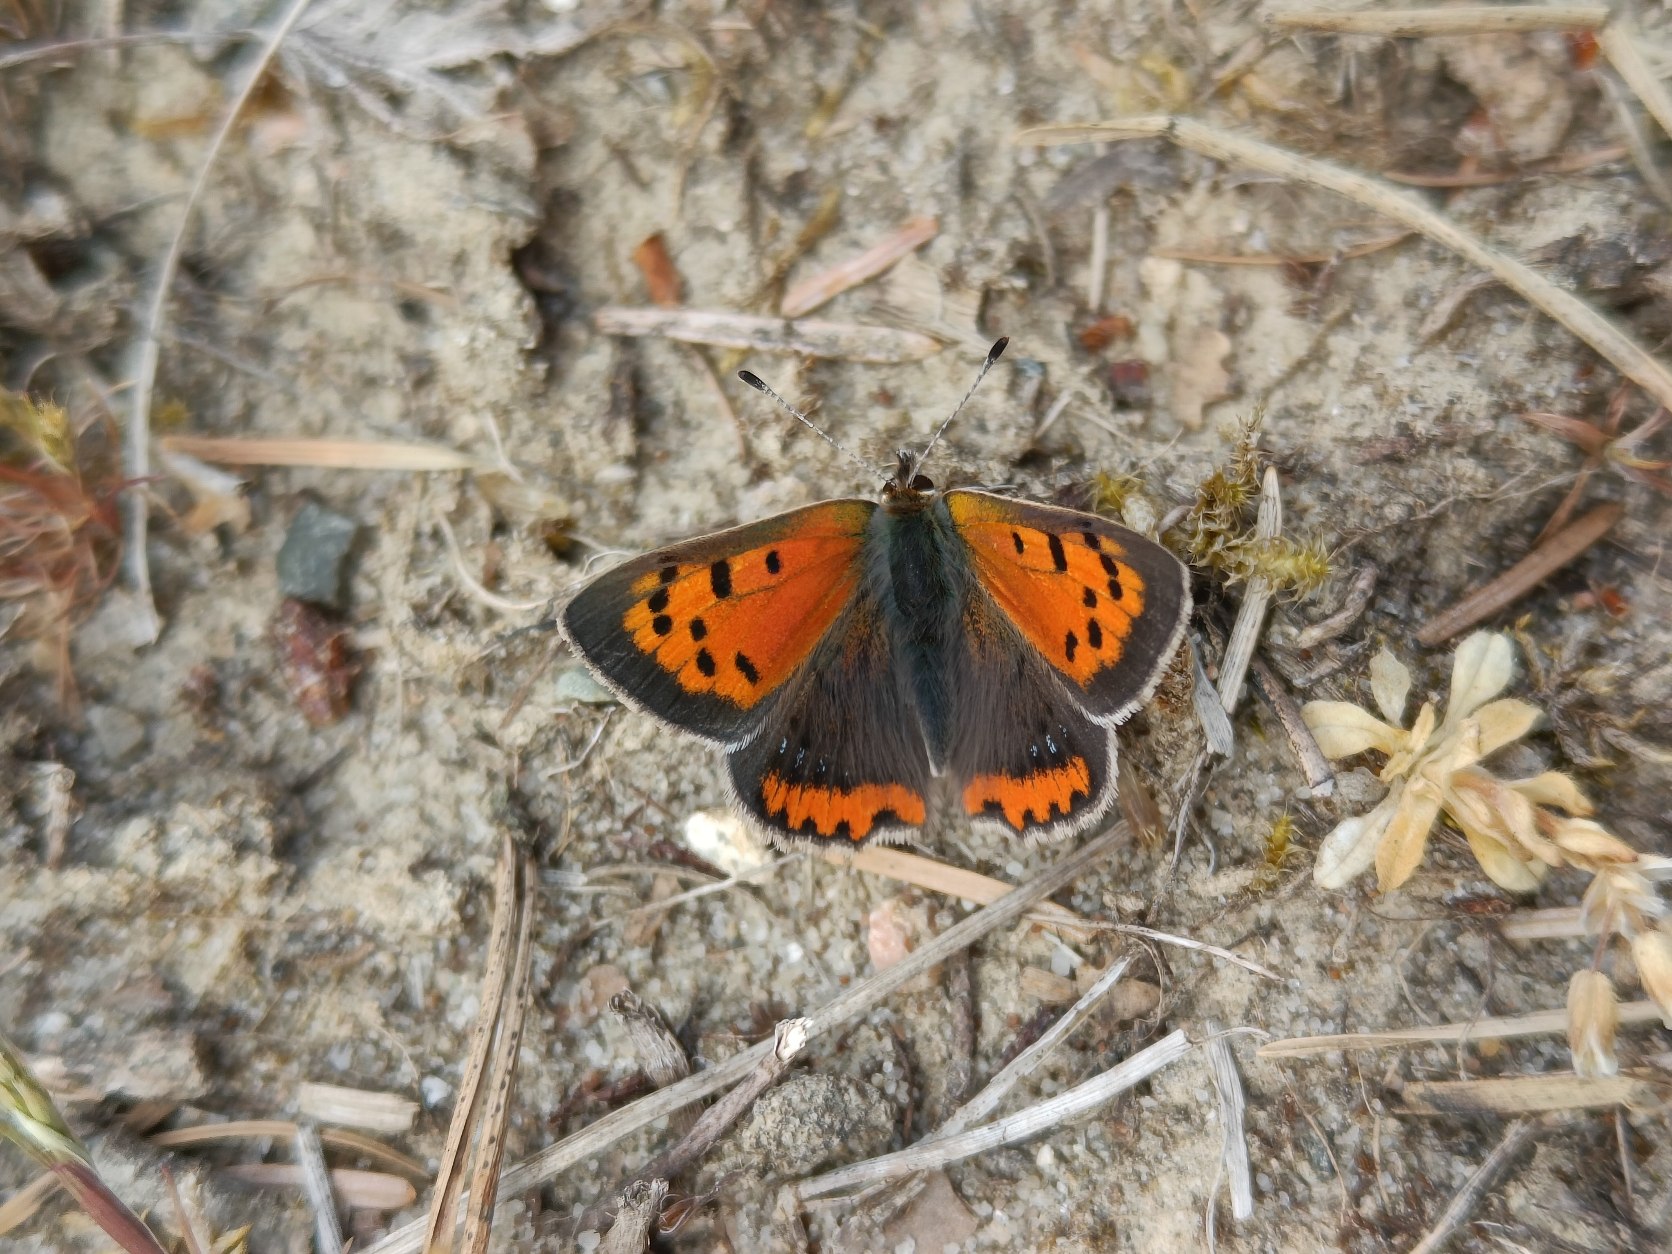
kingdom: Animalia
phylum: Arthropoda
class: Insecta
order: Lepidoptera
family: Lycaenidae
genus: Lycaena
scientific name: Lycaena phlaeas
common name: Lille ildfugl
